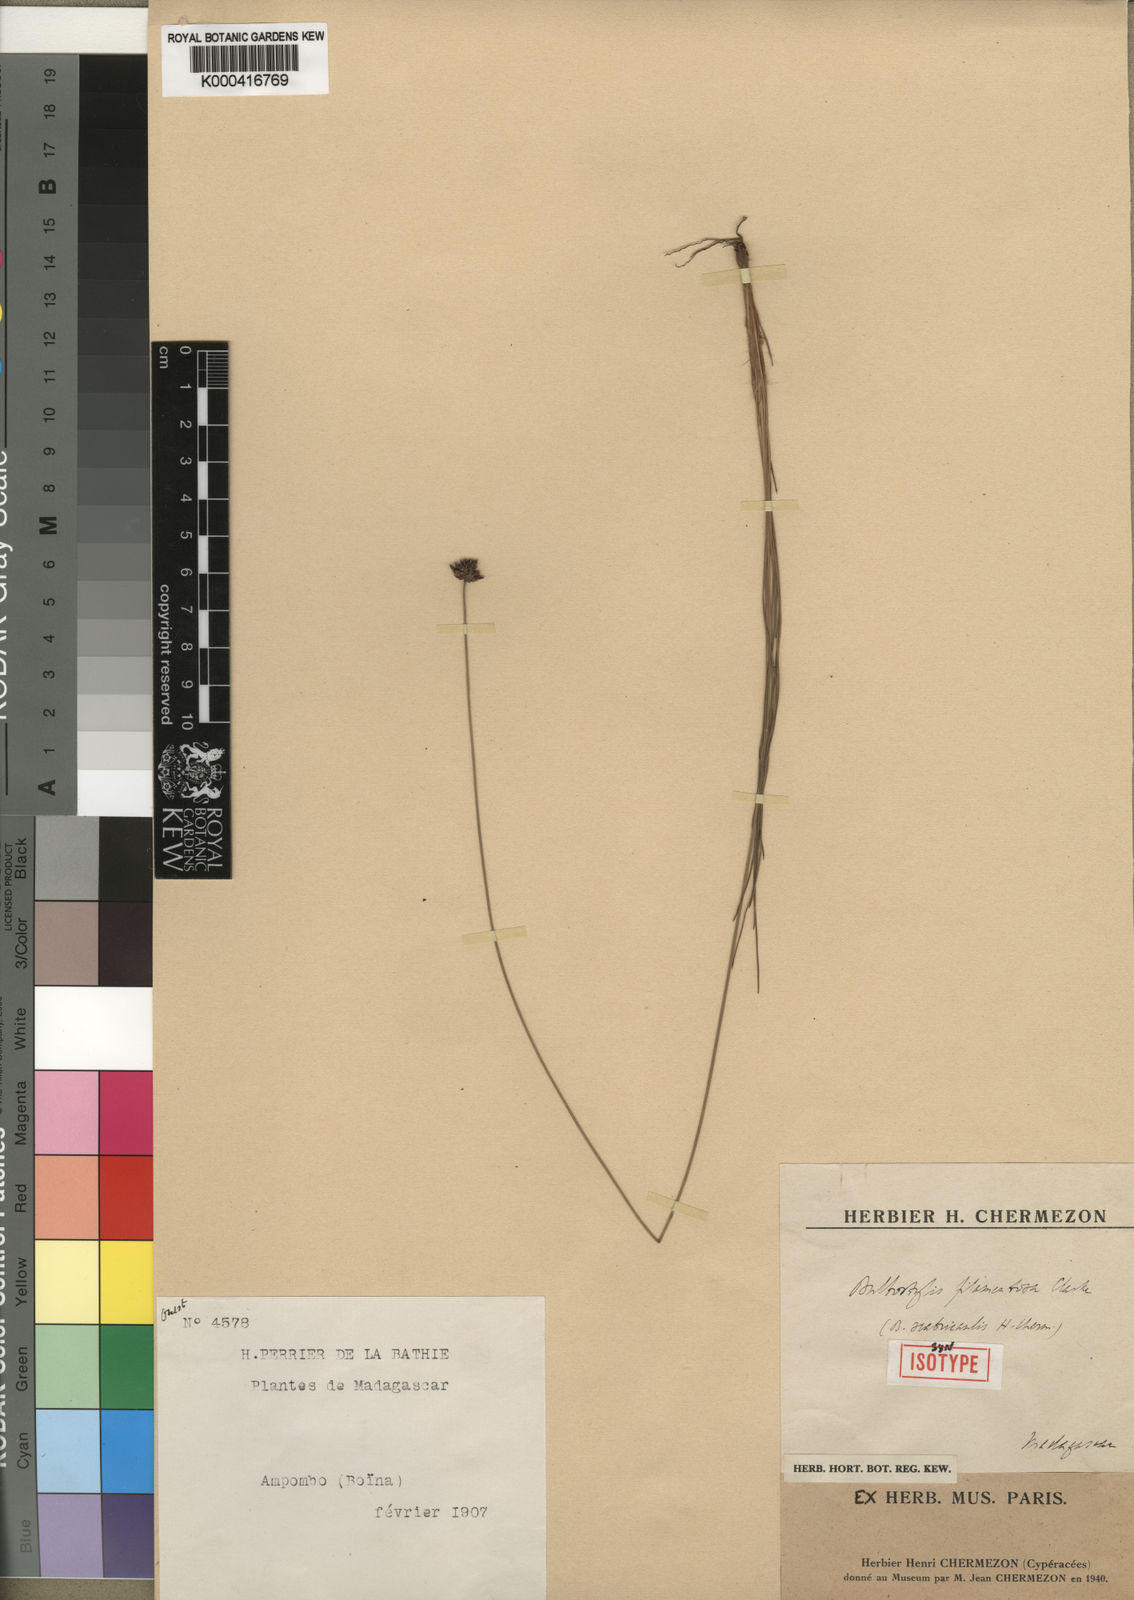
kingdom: Plantae
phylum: Tracheophyta
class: Liliopsida
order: Poales
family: Cyperaceae
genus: Bulbostylis
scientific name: Bulbostylis scabricaulis
